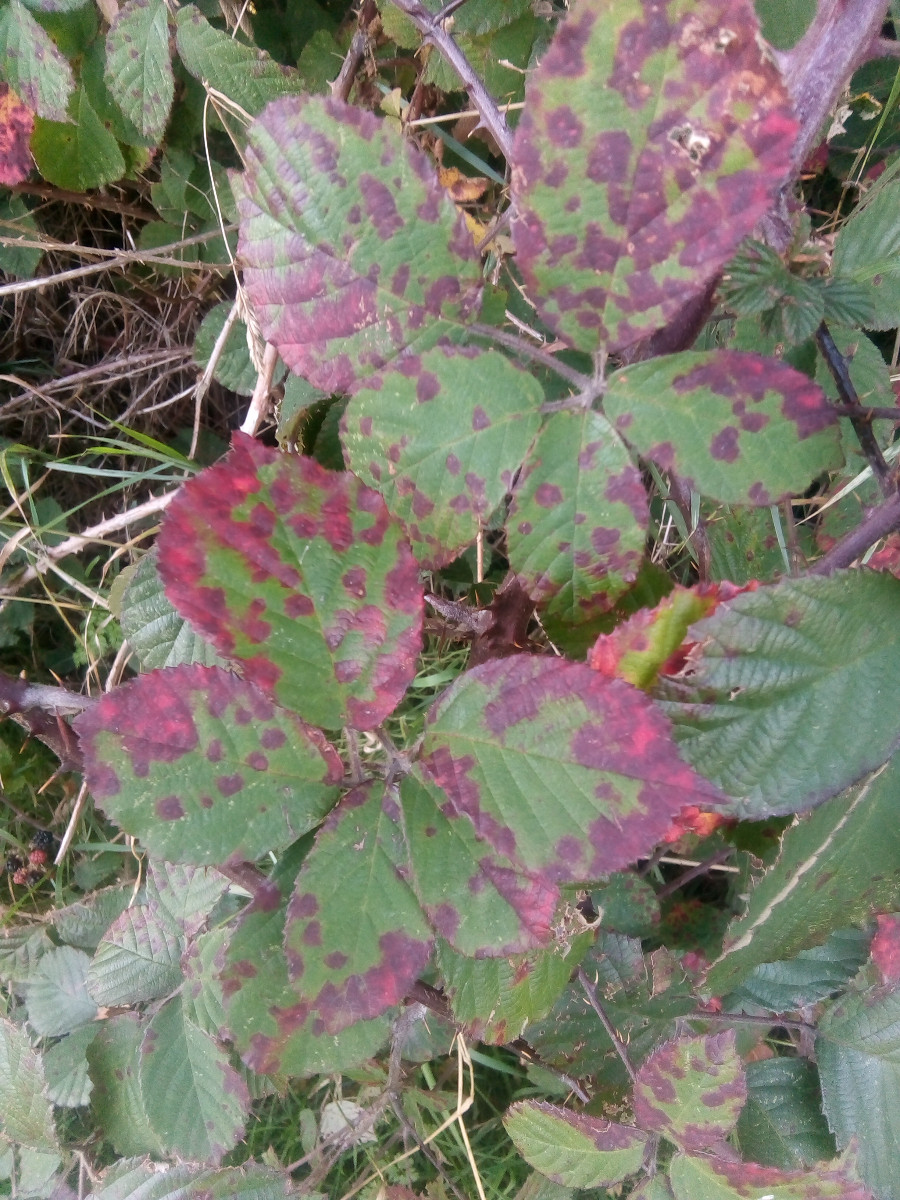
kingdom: Fungi
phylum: Basidiomycota
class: Pucciniomycetes
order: Pucciniales
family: Phragmidiaceae
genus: Phragmidium
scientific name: Phragmidium violaceum
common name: violet flercellerust
